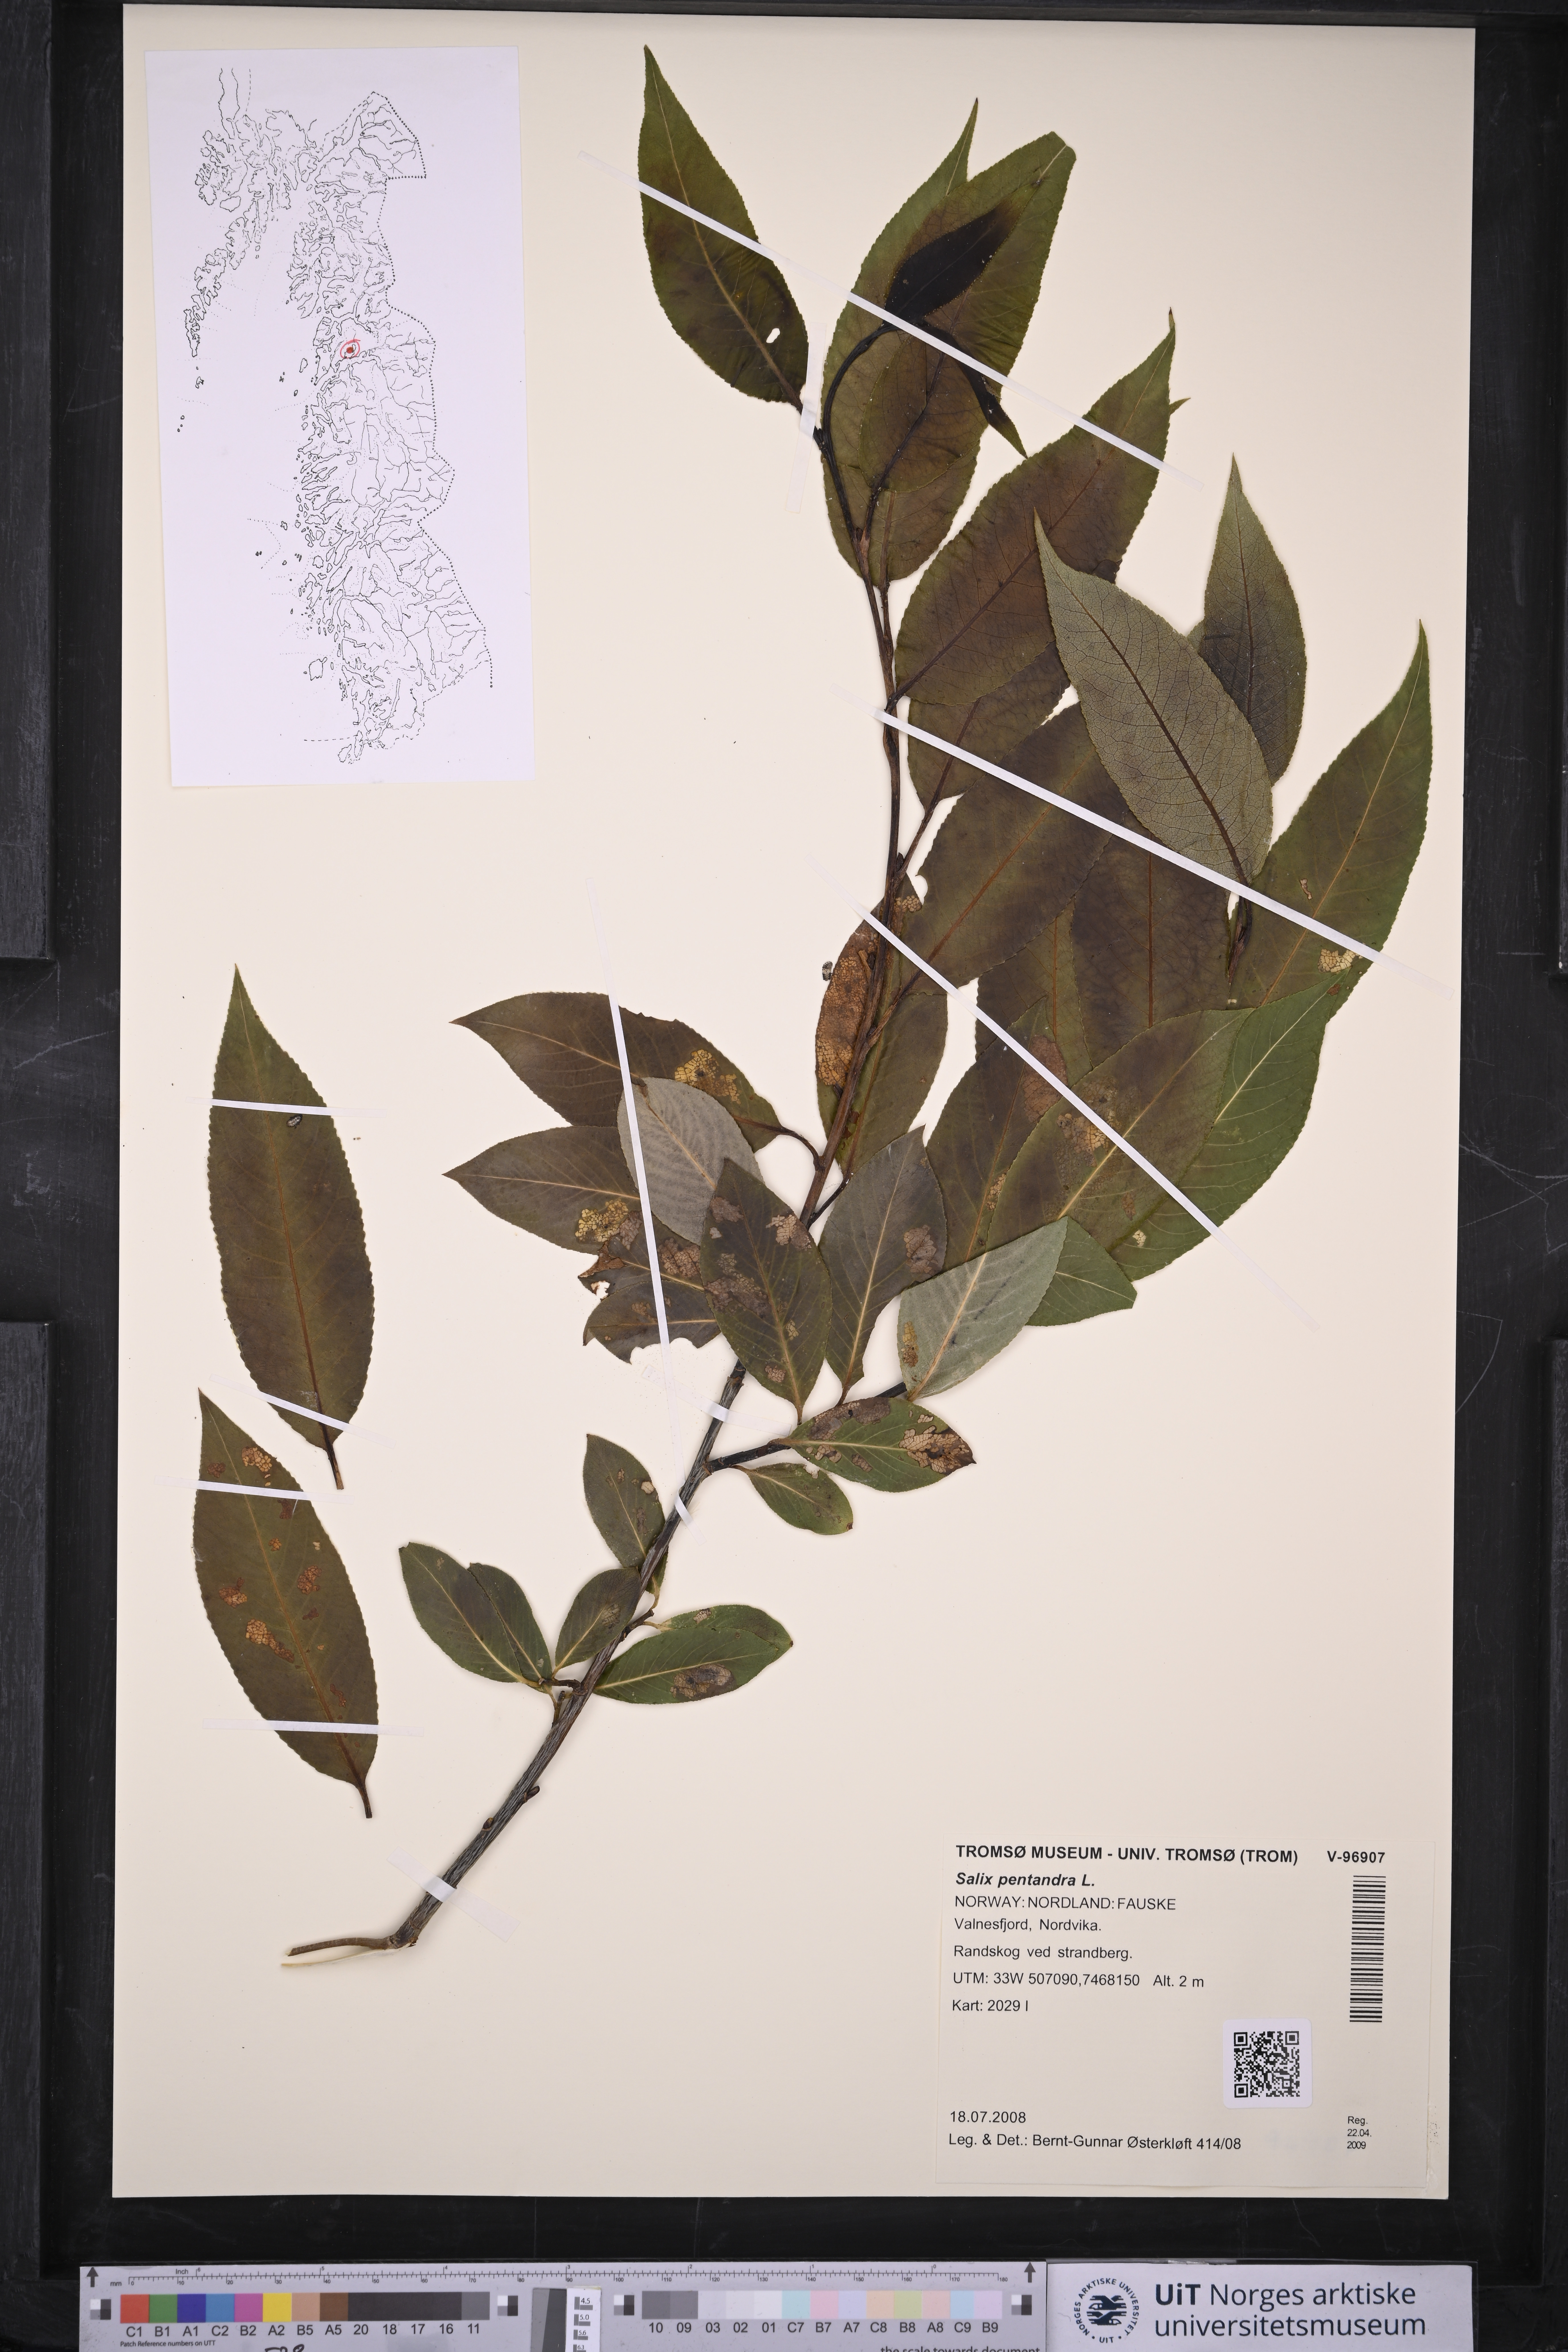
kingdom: Plantae
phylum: Tracheophyta
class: Magnoliopsida
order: Malpighiales
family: Salicaceae
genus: Salix
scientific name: Salix pentandra
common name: Bay willow
